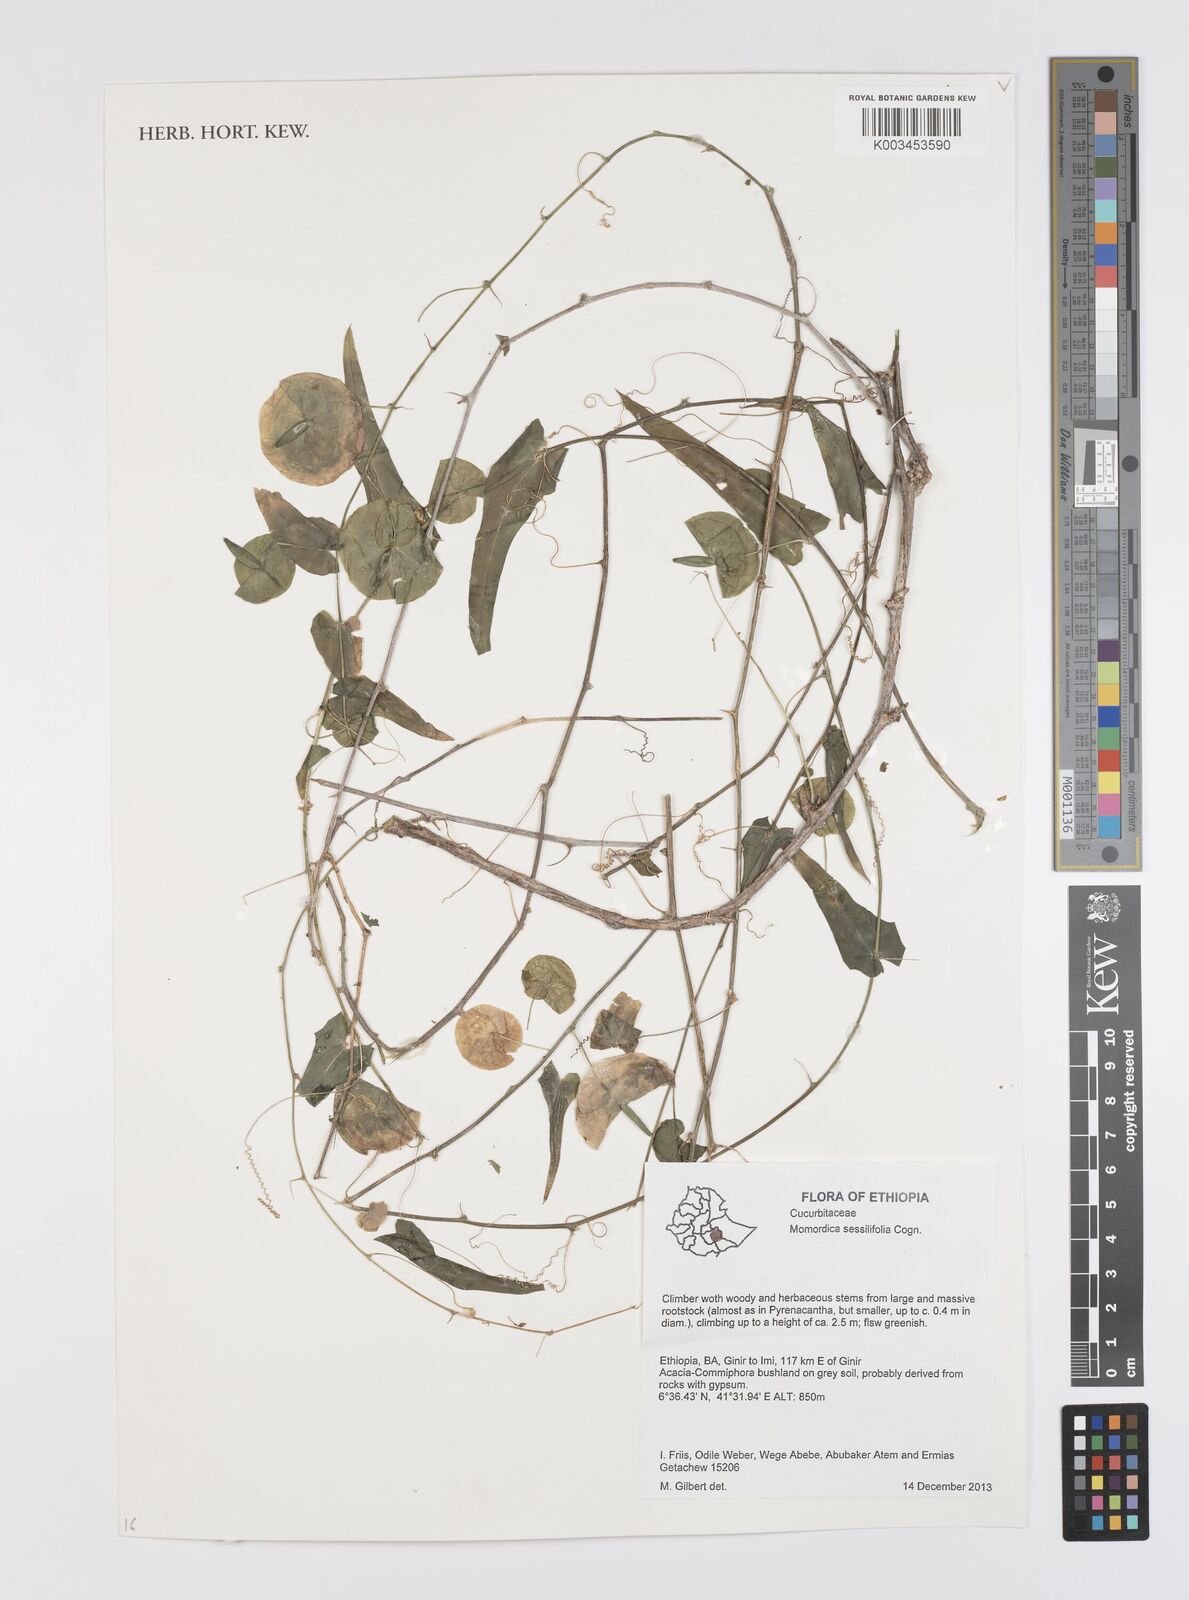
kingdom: Plantae
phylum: Tracheophyta
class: Magnoliopsida
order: Cucurbitales
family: Cucurbitaceae
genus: Momordica
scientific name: Momordica sessilifolia
